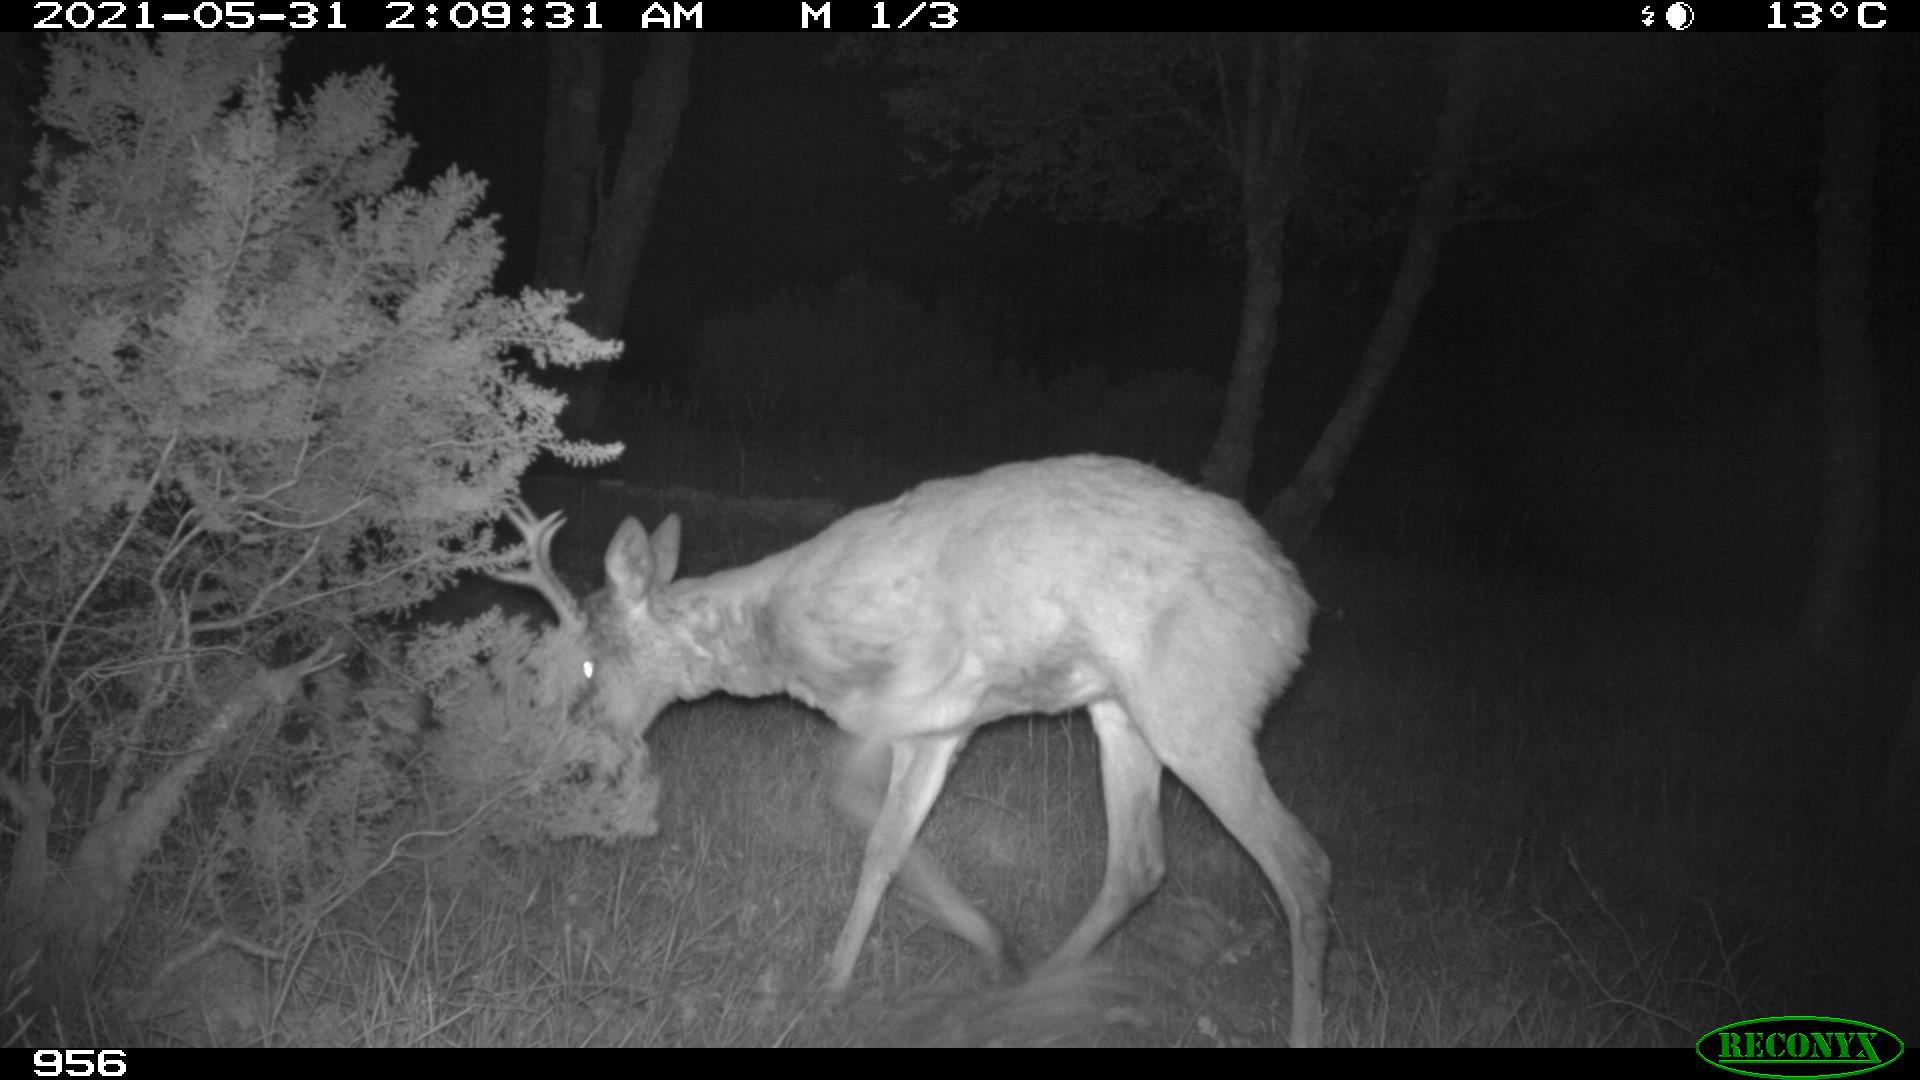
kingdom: Animalia
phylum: Chordata
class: Mammalia
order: Artiodactyla
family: Cervidae
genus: Capreolus
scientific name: Capreolus capreolus
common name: Western roe deer
